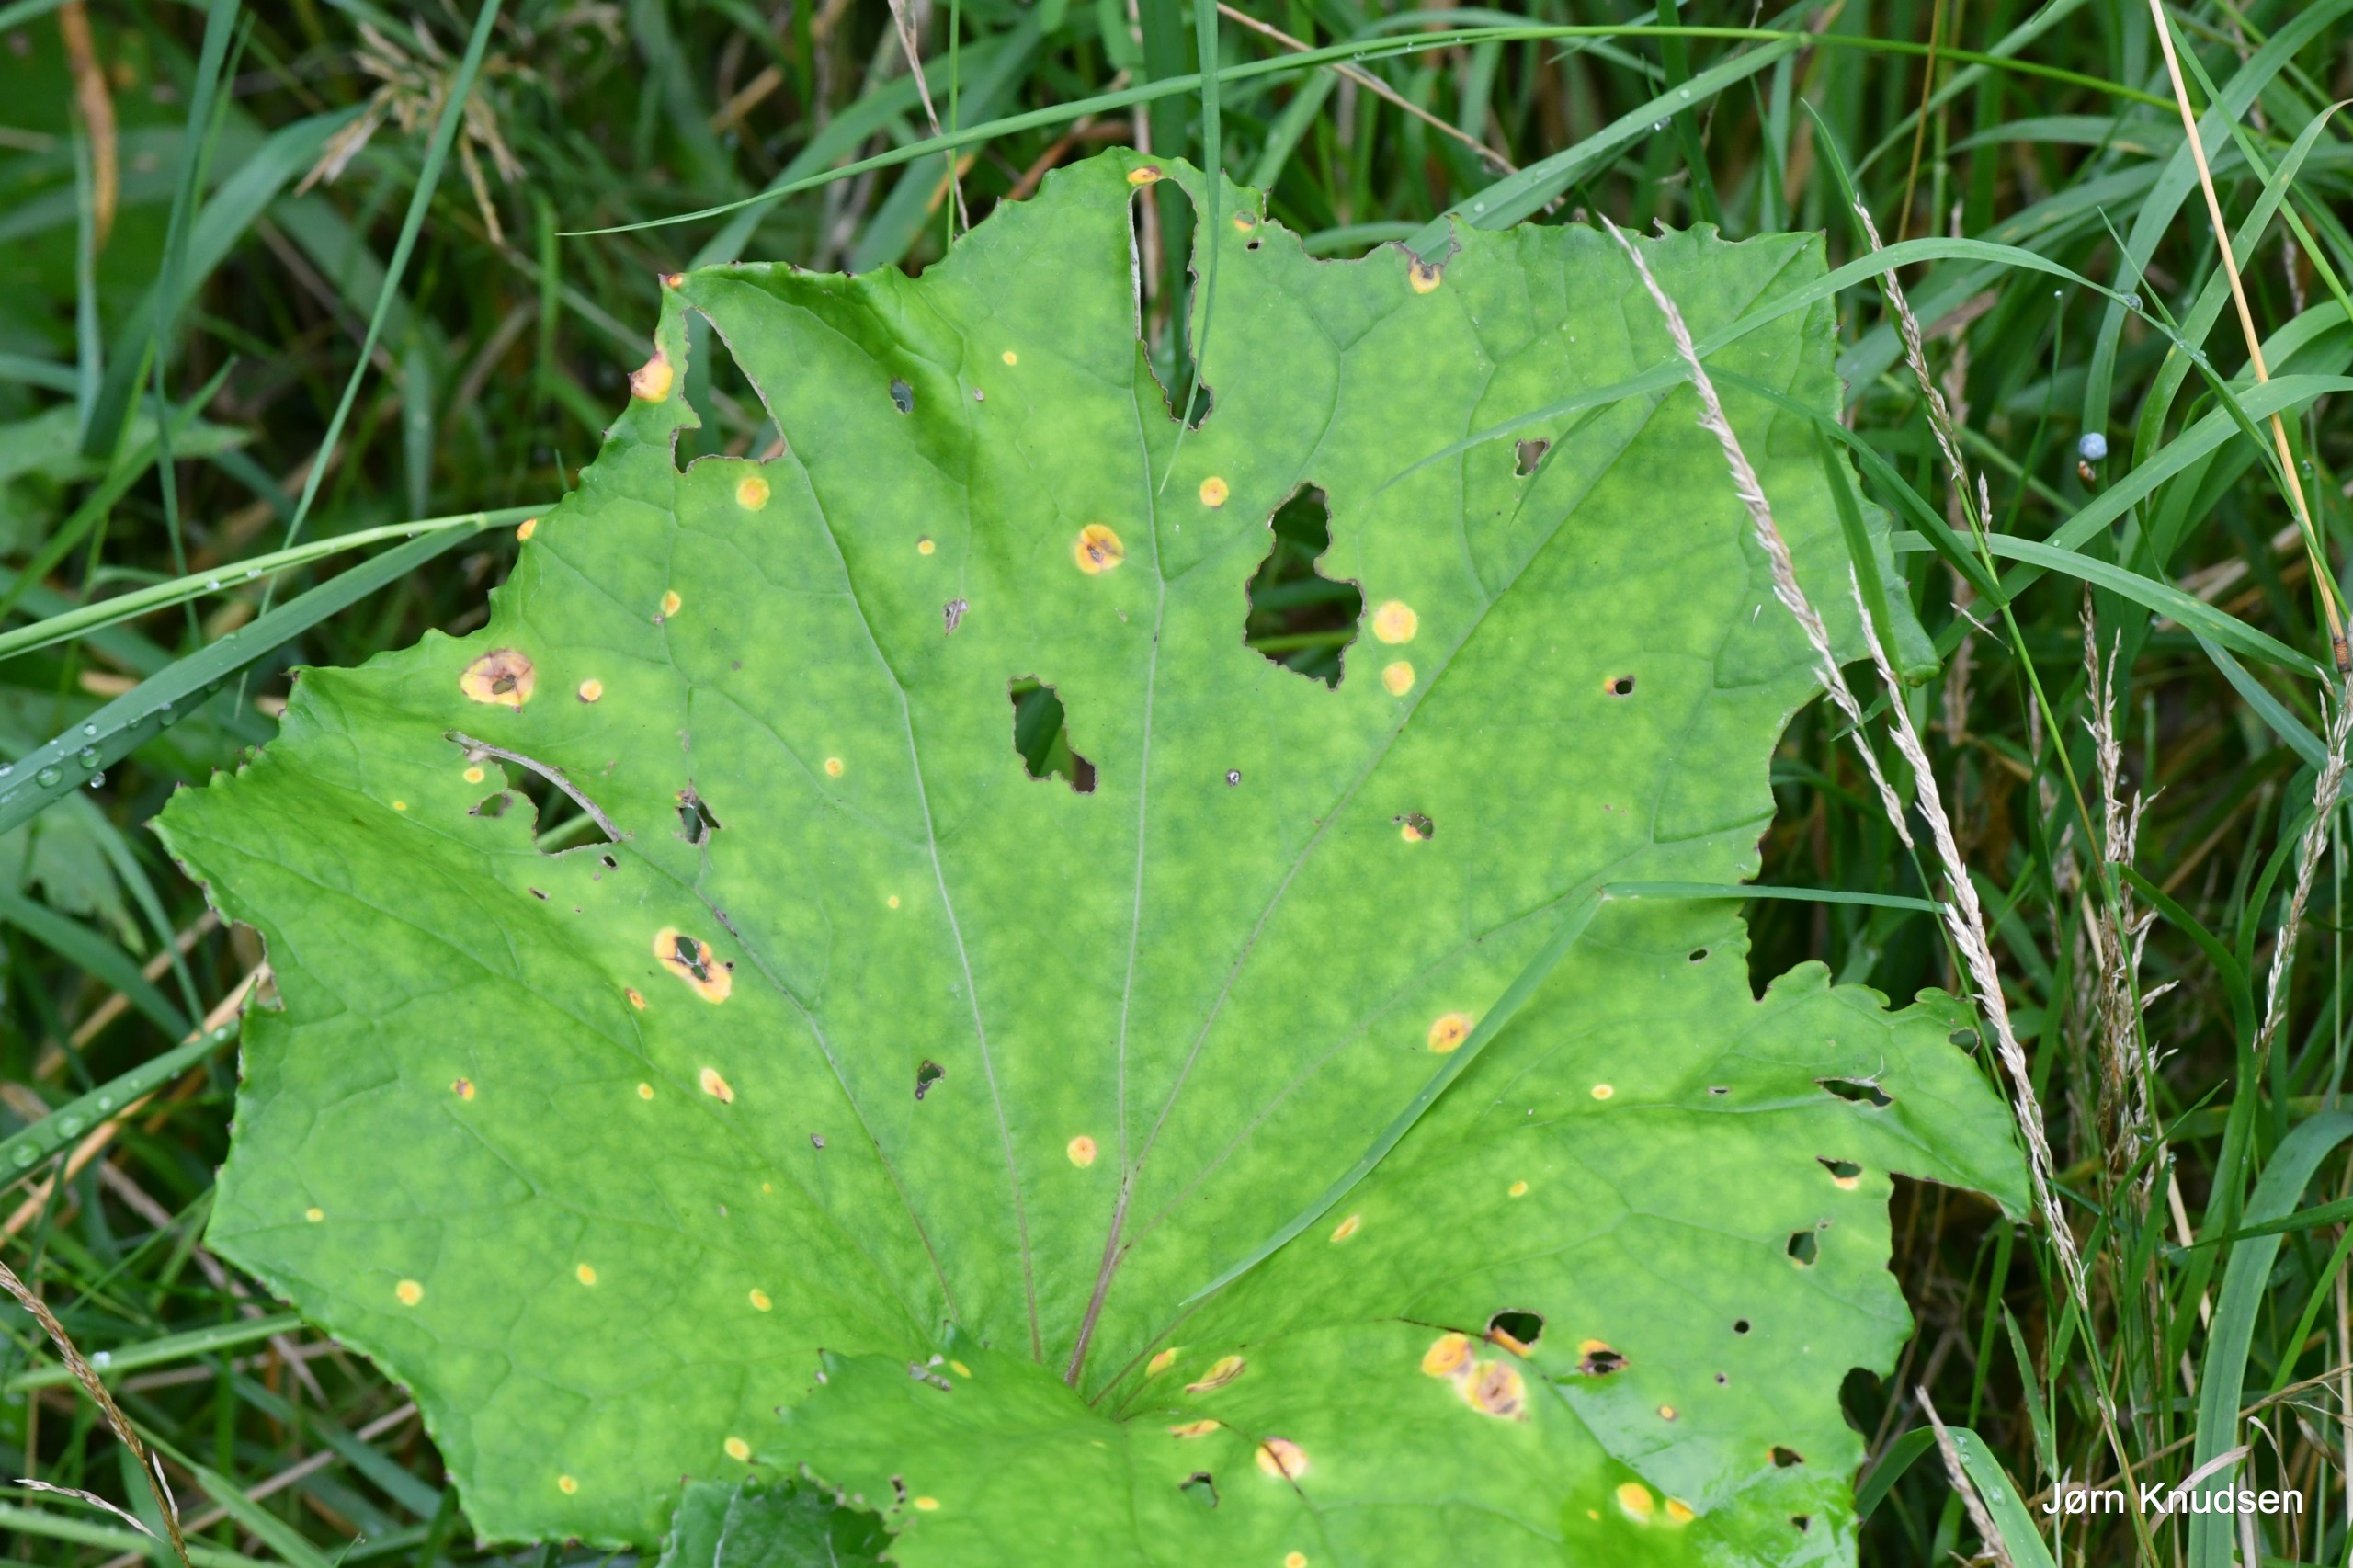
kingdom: Plantae
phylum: Tracheophyta
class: Magnoliopsida
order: Asterales
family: Asteraceae
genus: Tussilago
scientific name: Tussilago farfara
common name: Følfod
